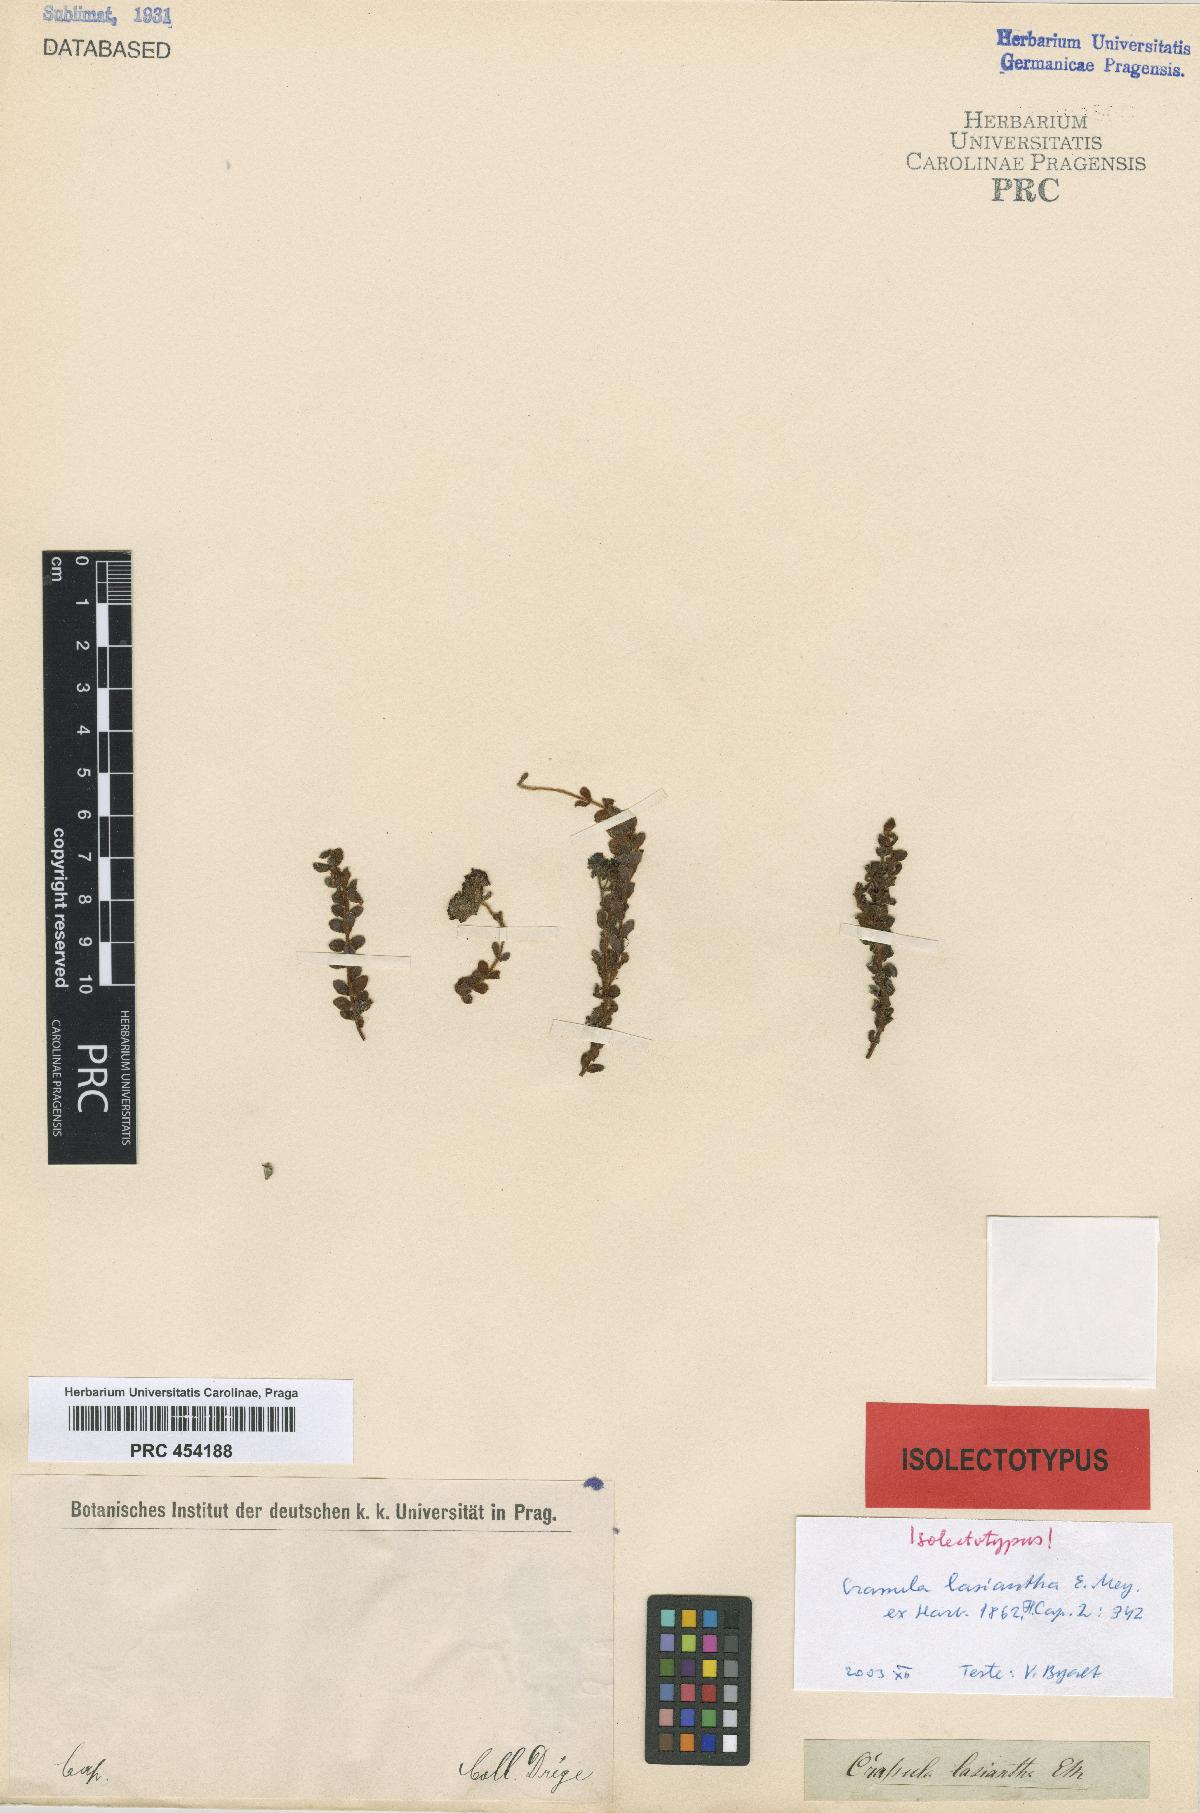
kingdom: Plantae
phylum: Tracheophyta
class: Magnoliopsida
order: Saxifragales
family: Crassulaceae
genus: Crassula
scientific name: Crassula lasiantha
